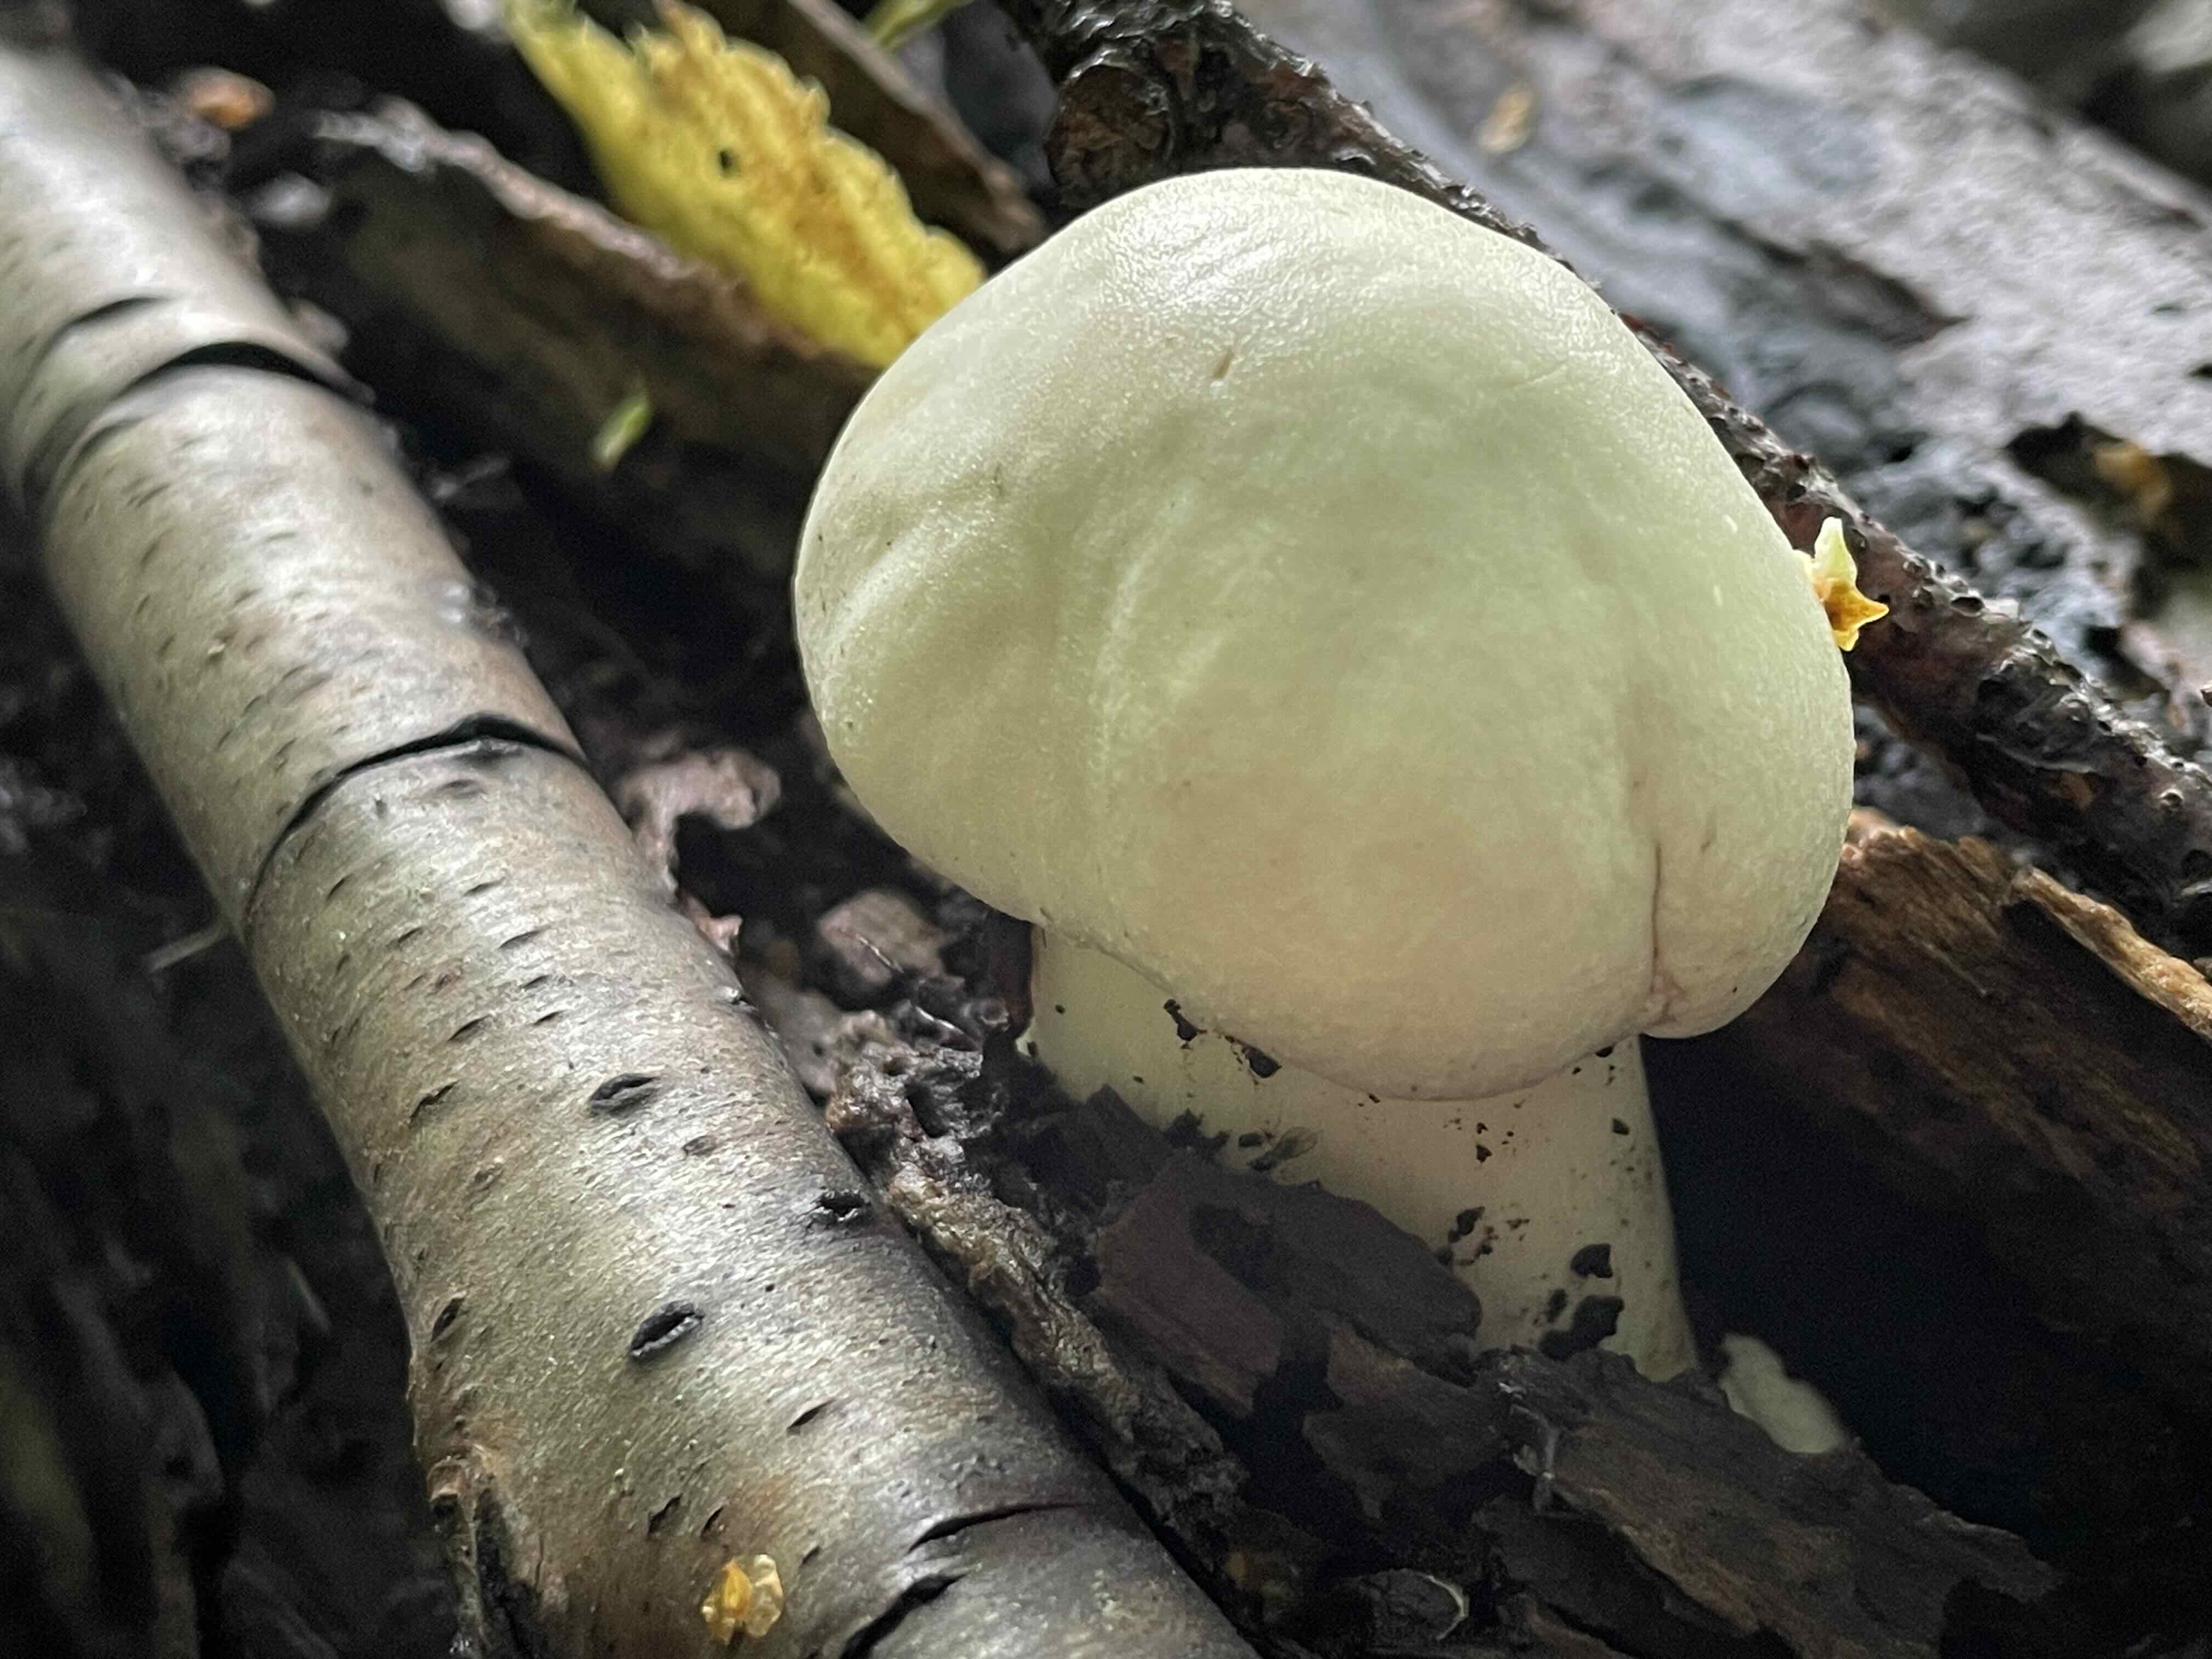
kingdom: Fungi
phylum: Basidiomycota
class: Agaricomycetes
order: Agaricales
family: Agaricaceae
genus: Agaricus
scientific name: Agaricus xanthodermus
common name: karbol-champignon
